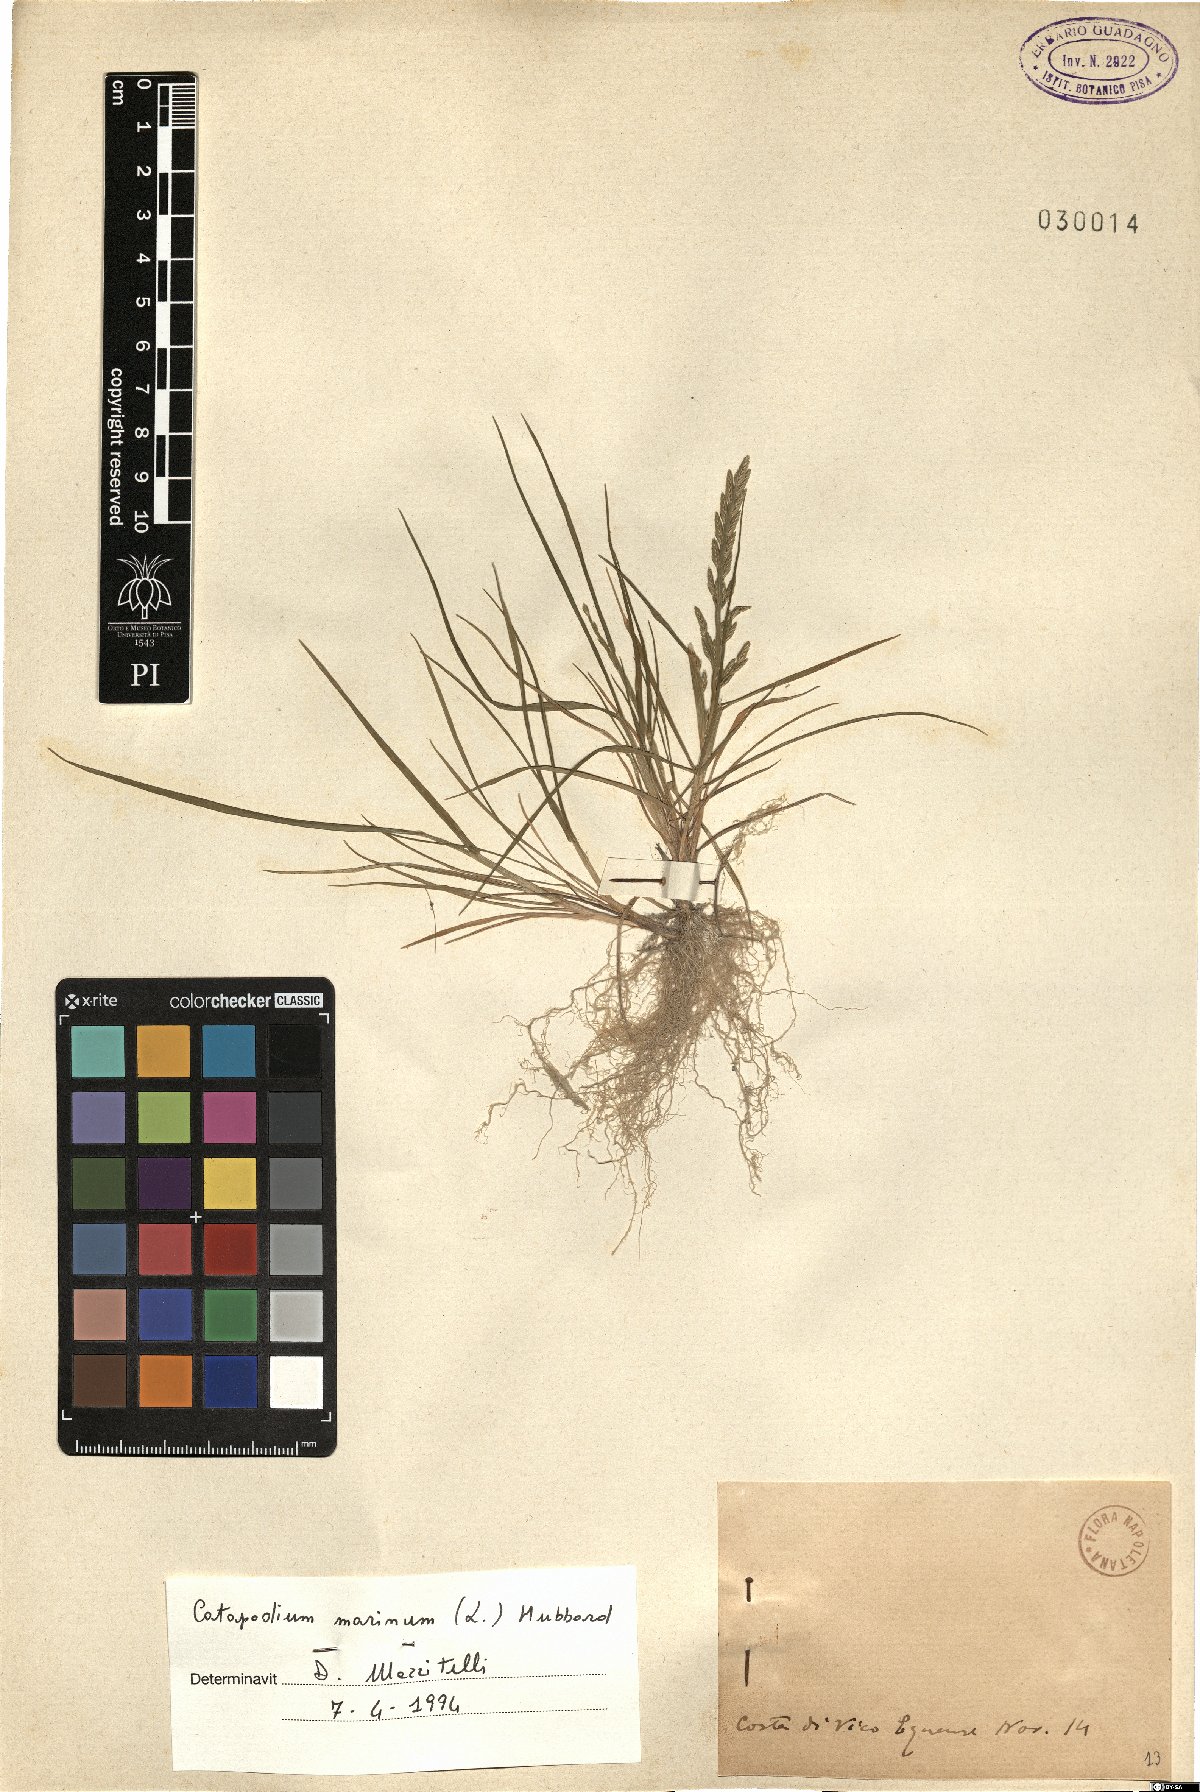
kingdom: Plantae
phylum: Tracheophyta
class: Liliopsida
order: Poales
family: Poaceae
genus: Catapodium
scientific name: Catapodium marinum
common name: Sea fern-grass
